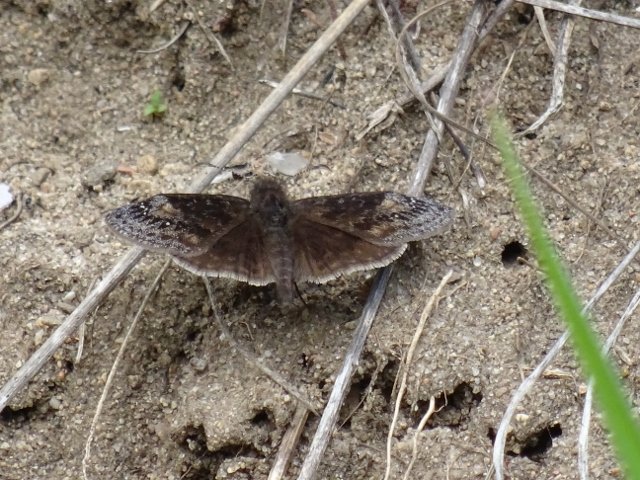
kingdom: Animalia
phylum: Arthropoda
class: Insecta
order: Lepidoptera
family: Hesperiidae
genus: Gesta
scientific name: Gesta
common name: Juvenal's Duskywing
